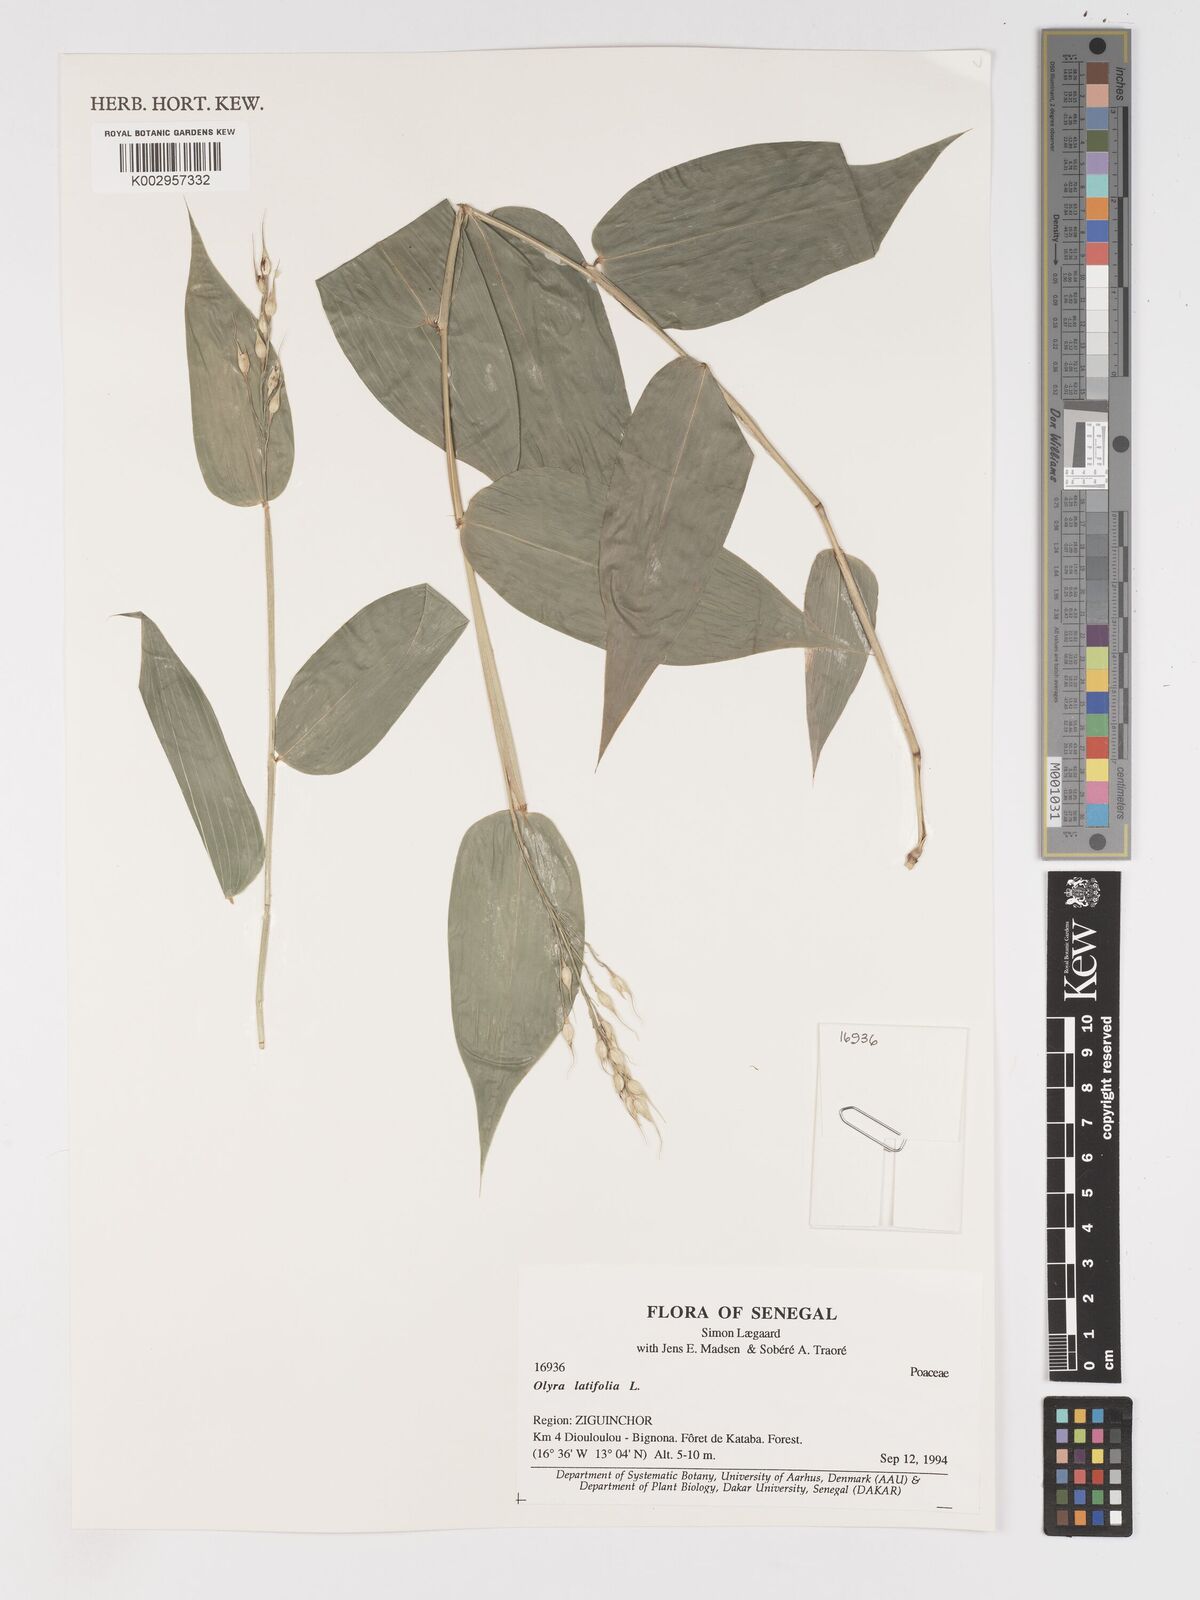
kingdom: Plantae
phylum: Tracheophyta
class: Liliopsida
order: Poales
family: Poaceae
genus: Olyra
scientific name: Olyra latifolia
